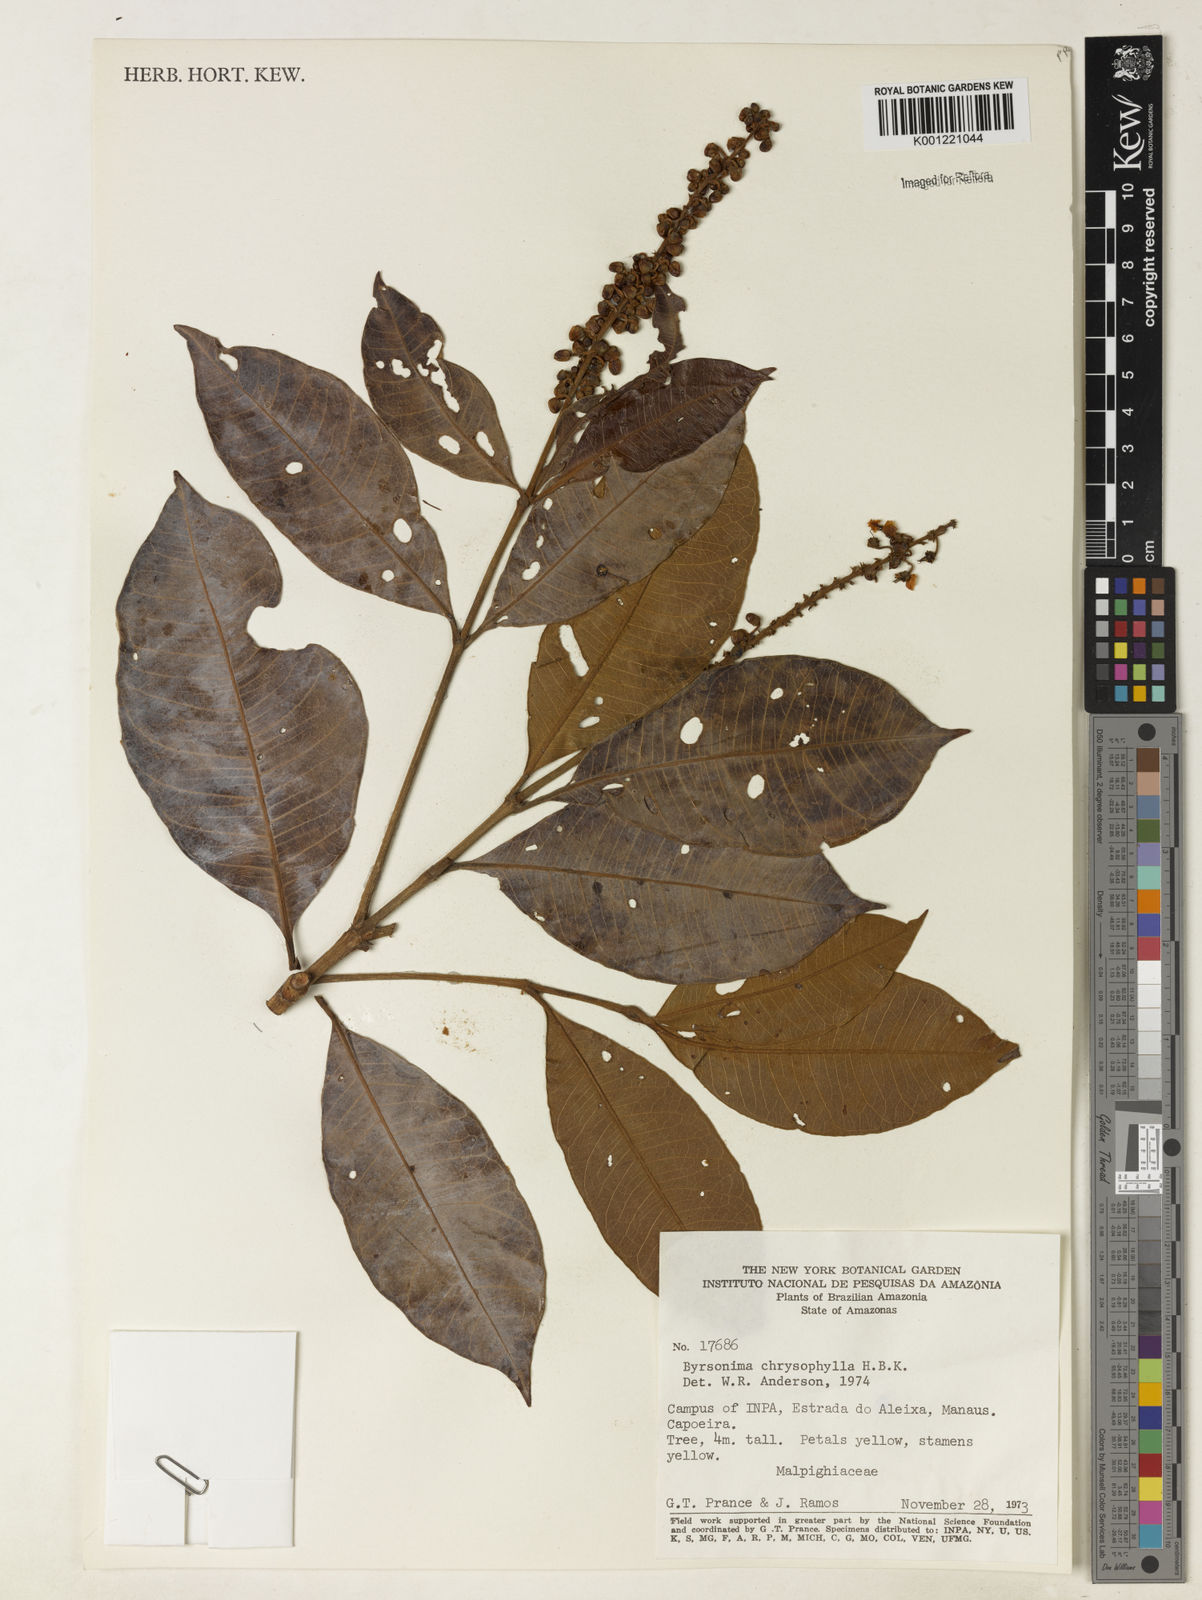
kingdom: Plantae
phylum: Tracheophyta
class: Magnoliopsida
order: Malpighiales
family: Malpighiaceae
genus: Byrsonima
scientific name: Byrsonima chrysophylla
